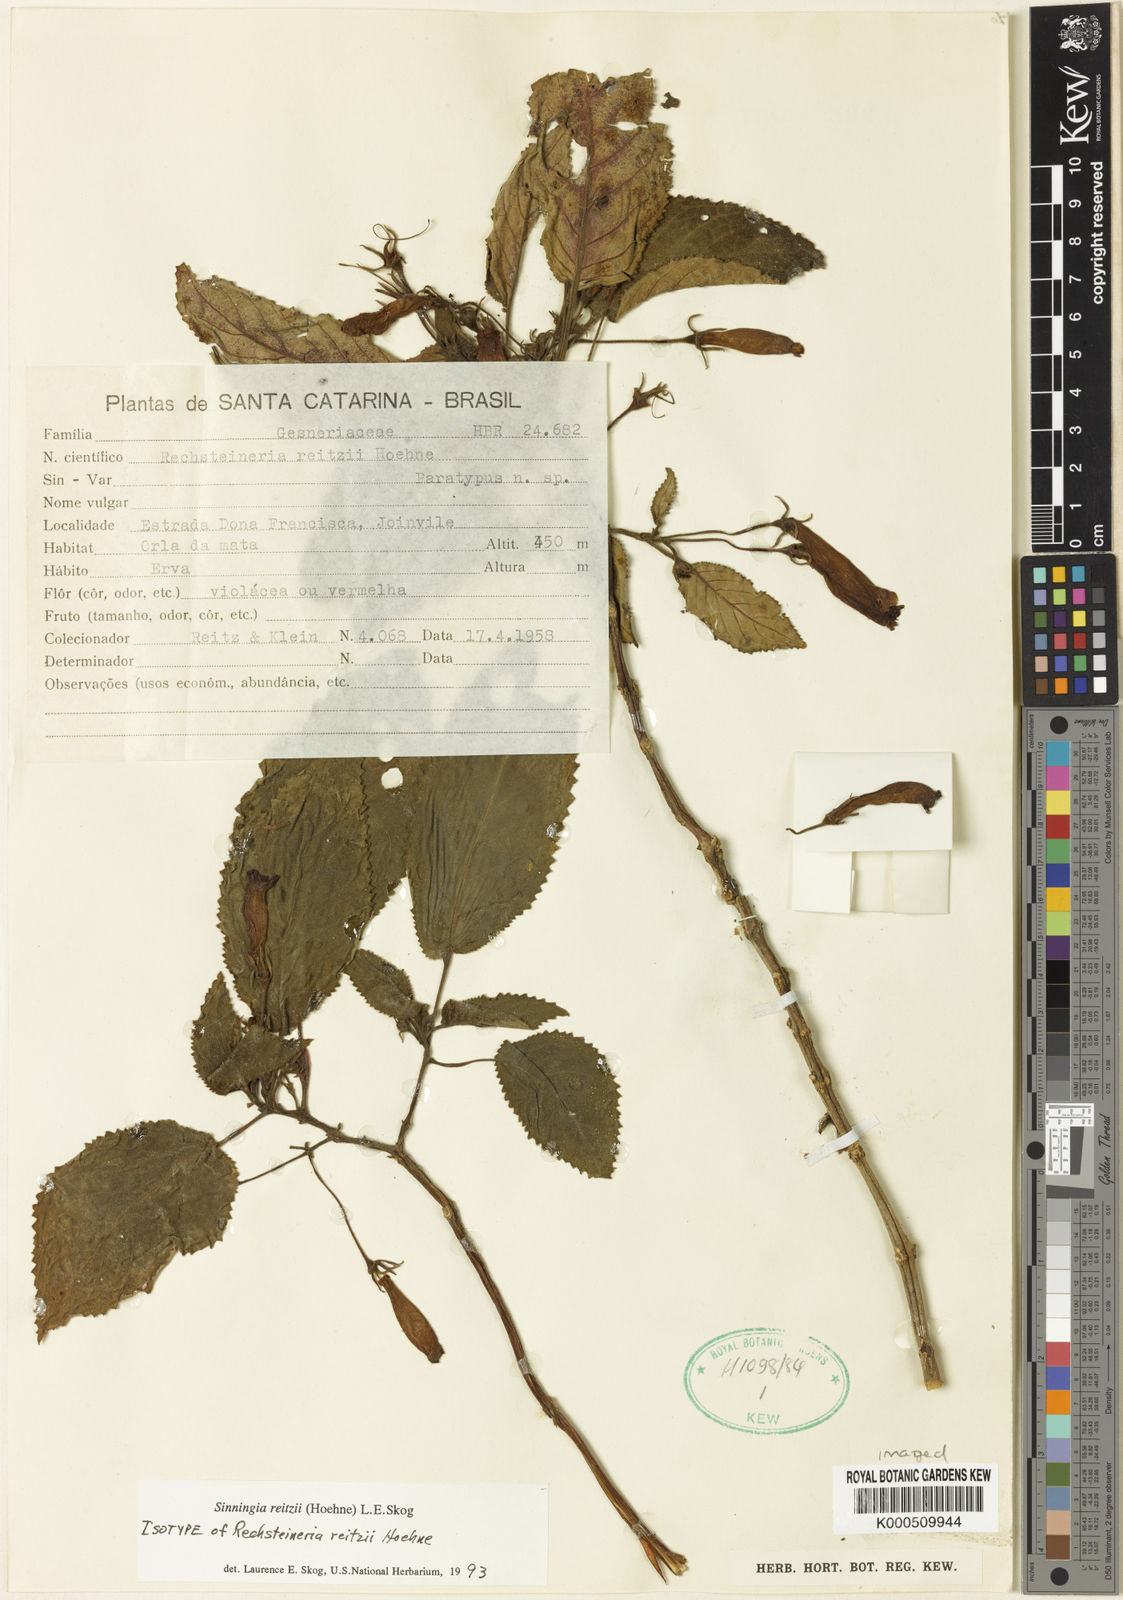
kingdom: Plantae
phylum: Tracheophyta
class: Magnoliopsida
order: Lamiales
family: Gesneriaceae
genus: Sinningia
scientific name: Sinningia reitzii
